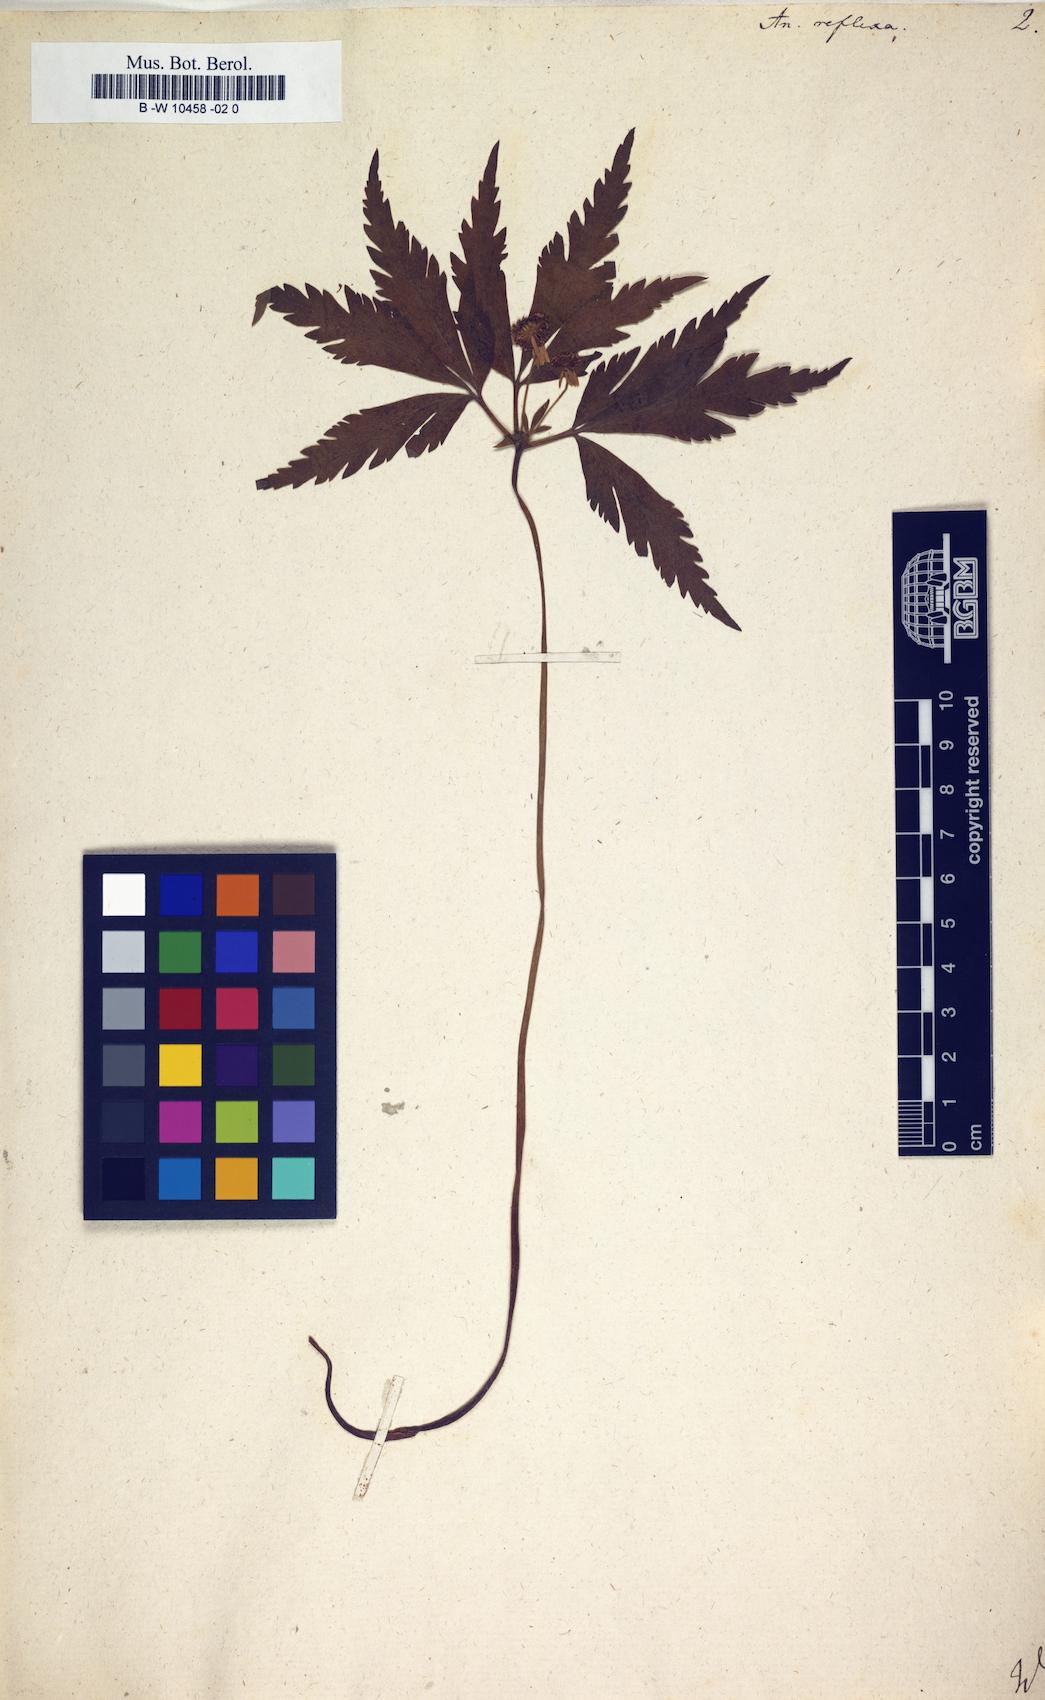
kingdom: Plantae
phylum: Tracheophyta
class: Magnoliopsida
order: Ranunculales
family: Ranunculaceae
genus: Anemone
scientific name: Anemone reflexa
